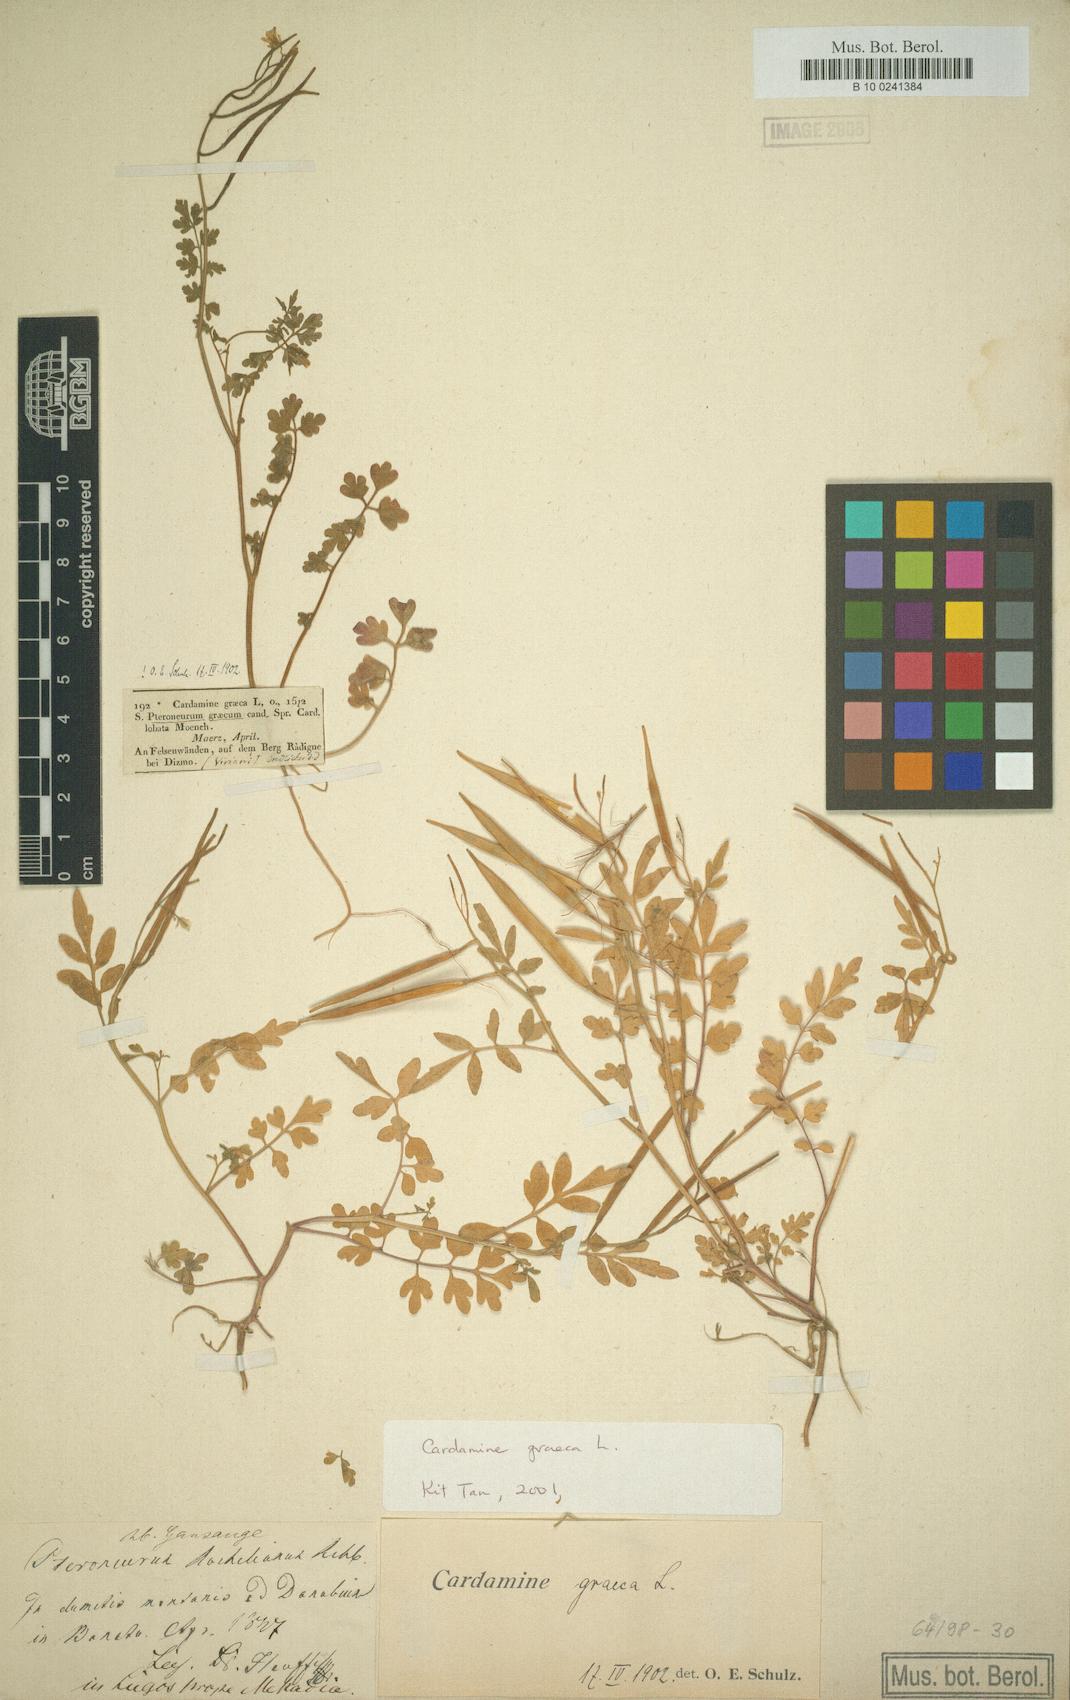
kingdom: Plantae
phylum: Tracheophyta
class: Magnoliopsida
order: Brassicales
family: Brassicaceae
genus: Cardamine
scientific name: Cardamine graeca
